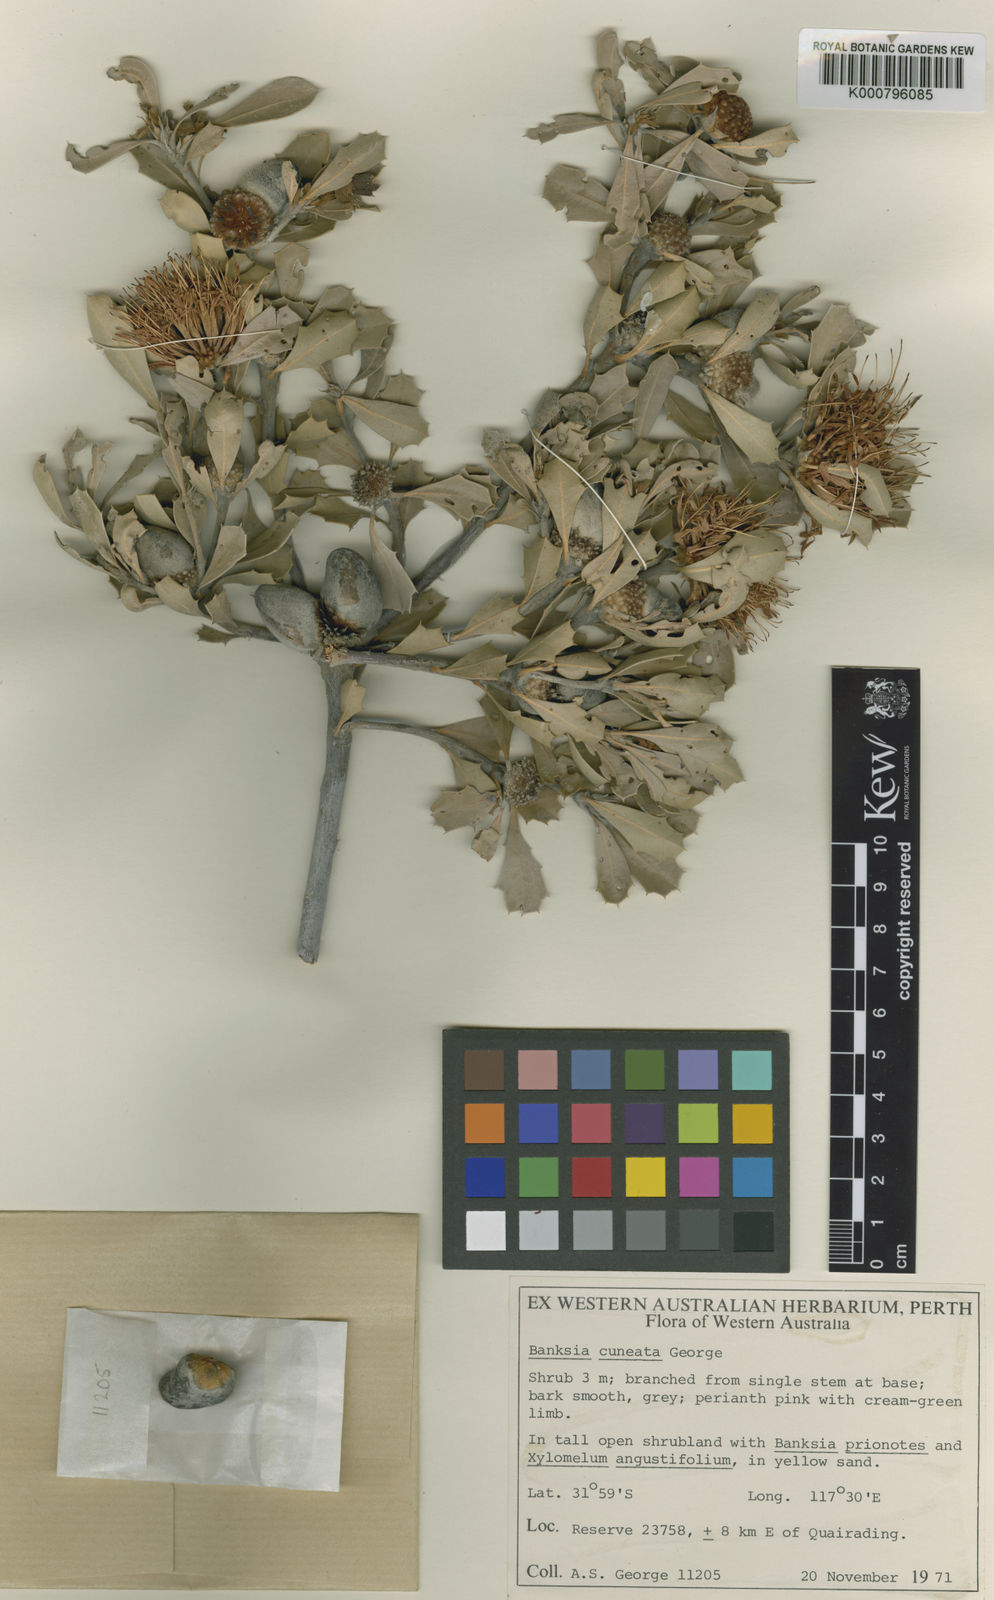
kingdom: Plantae
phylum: Tracheophyta
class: Magnoliopsida
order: Proteales
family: Proteaceae
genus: Banksia
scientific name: Banksia cuneata
